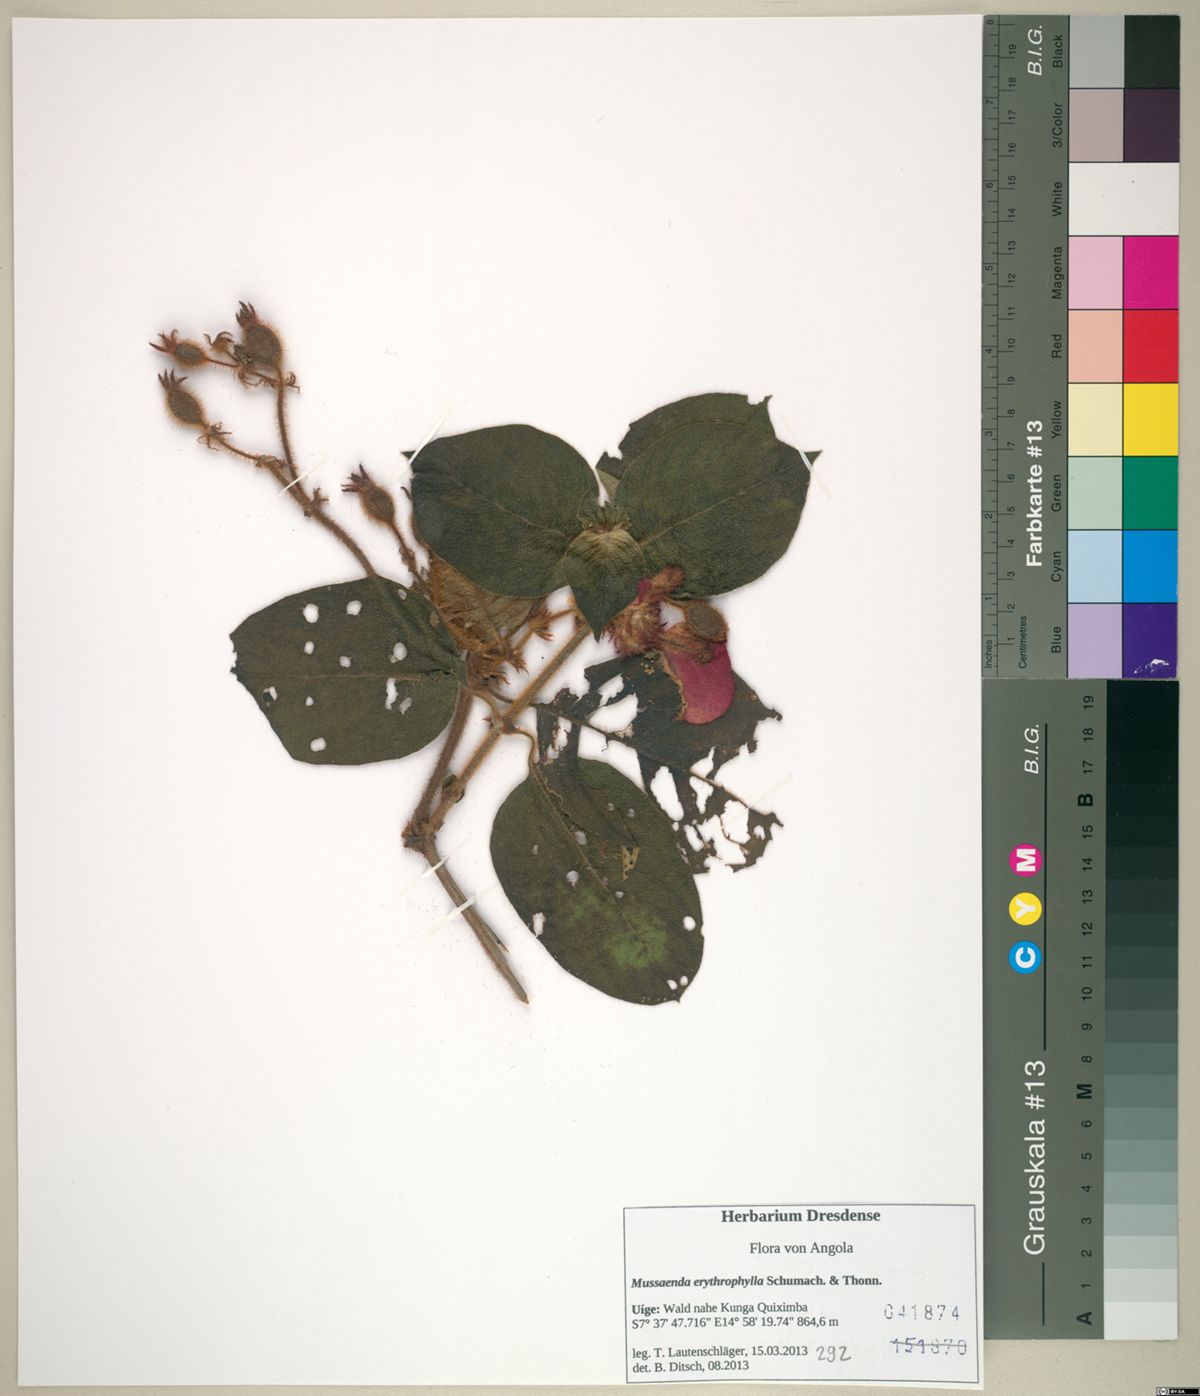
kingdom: Plantae
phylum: Tracheophyta
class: Magnoliopsida
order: Gentianales
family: Rubiaceae
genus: Mussaenda
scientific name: Mussaenda erythrophylla
